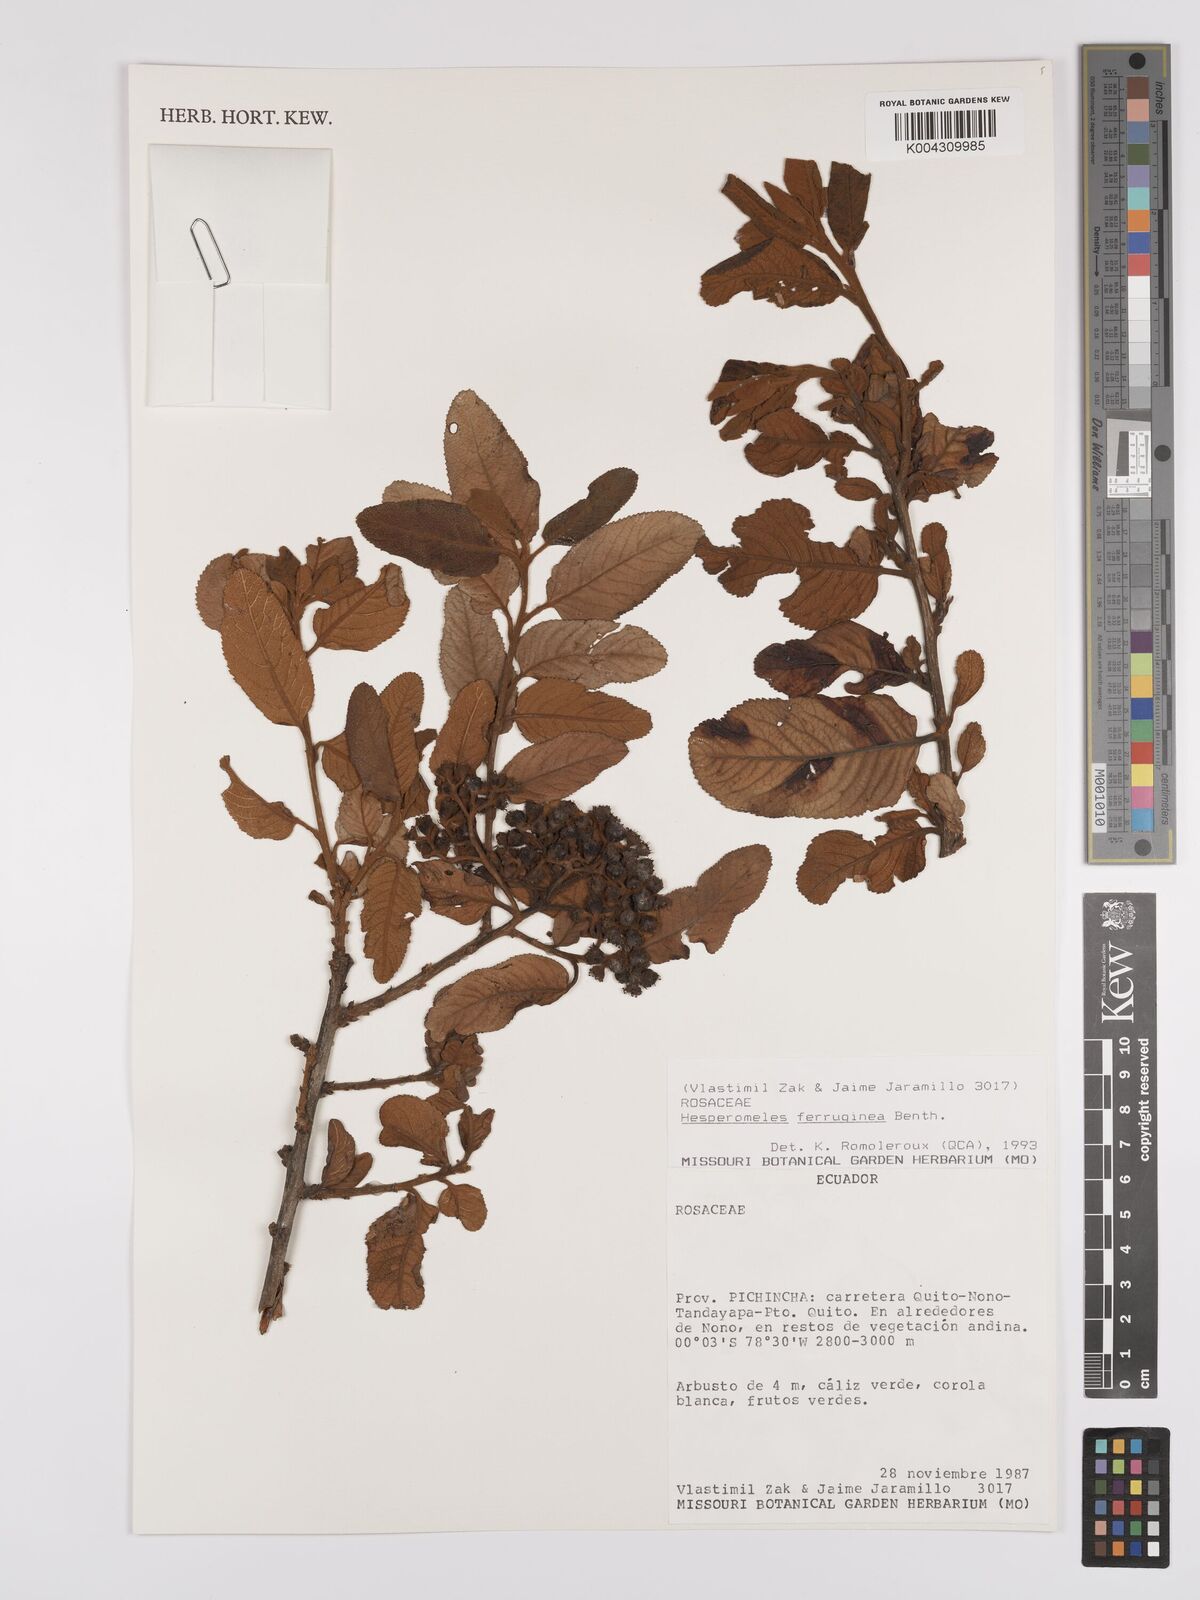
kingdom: Plantae
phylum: Tracheophyta
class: Magnoliopsida
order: Rosales
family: Rosaceae
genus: Hesperomeles
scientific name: Hesperomeles ferruginea
